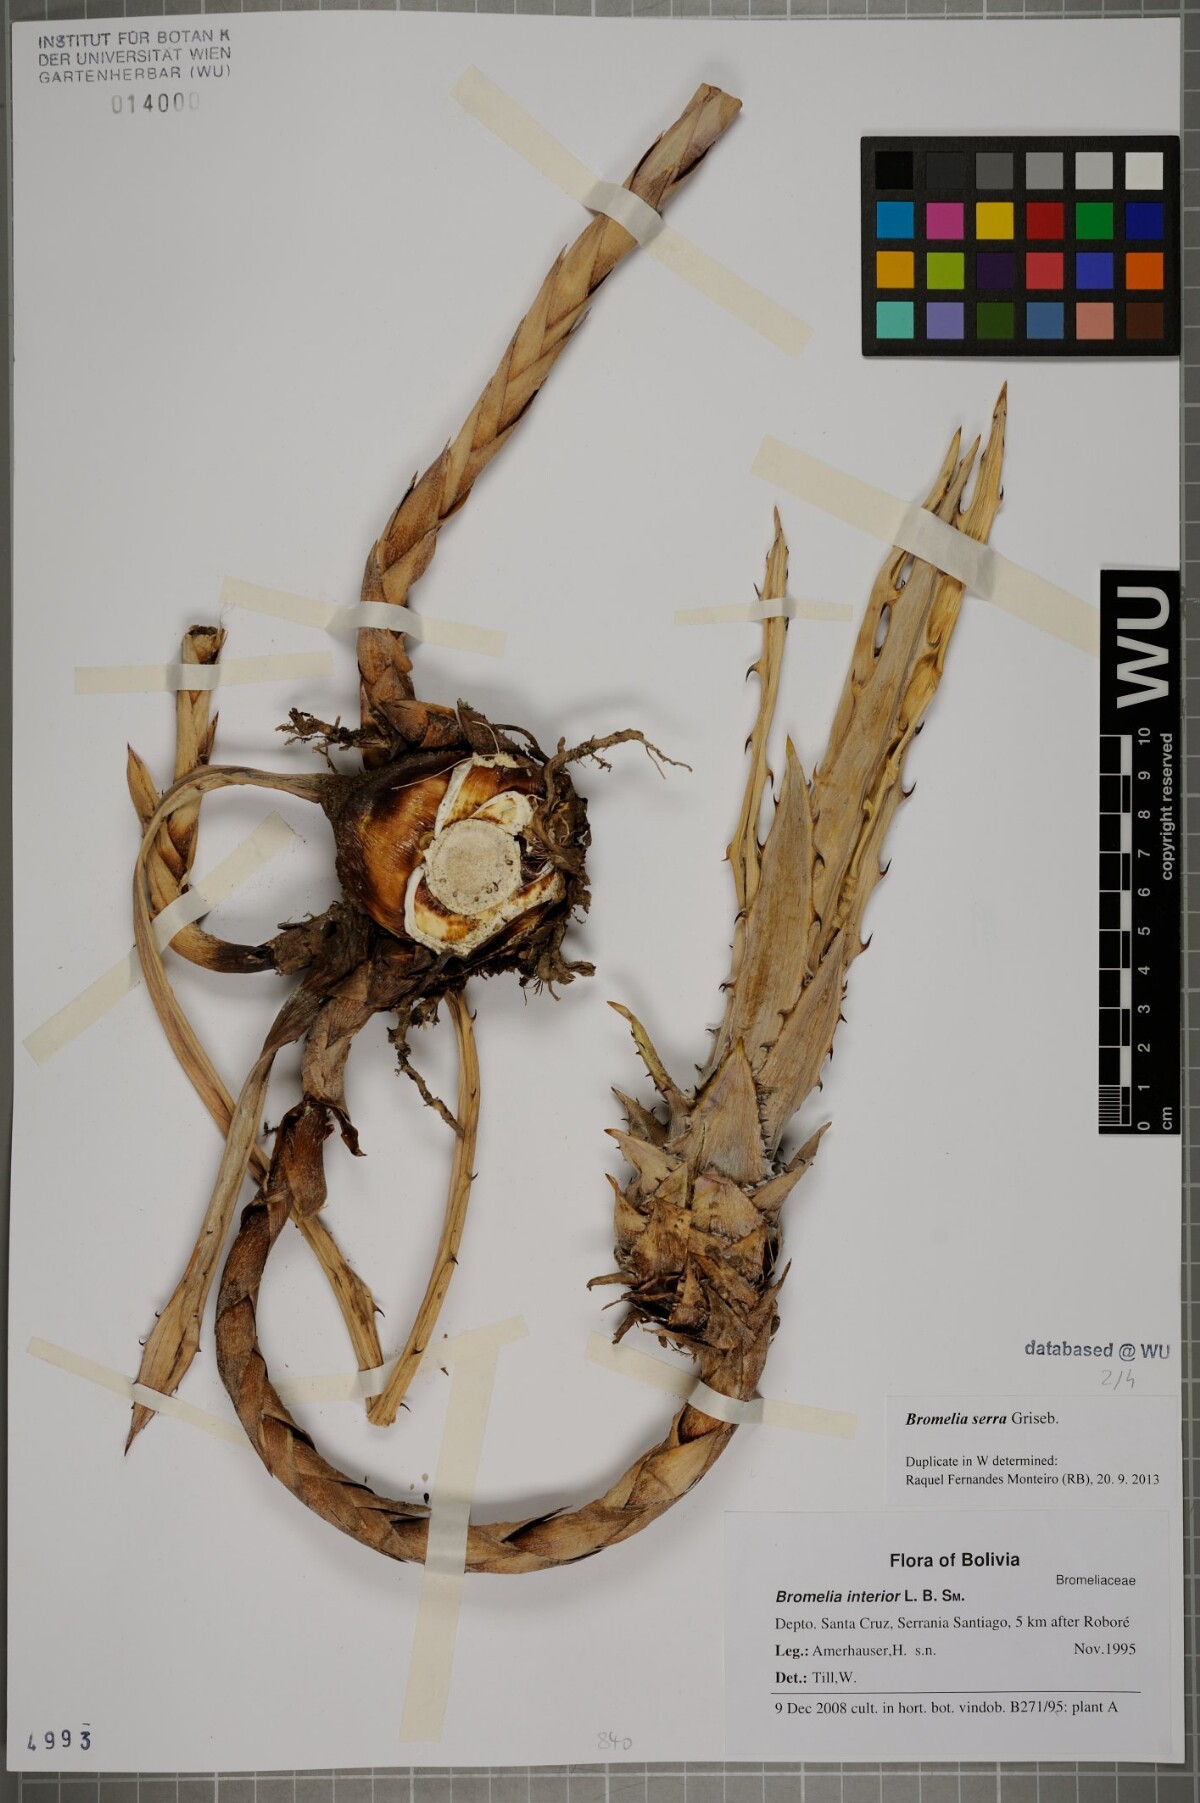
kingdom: Plantae
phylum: Tracheophyta
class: Liliopsida
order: Poales
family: Bromeliaceae
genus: Bromelia
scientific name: Bromelia serra
